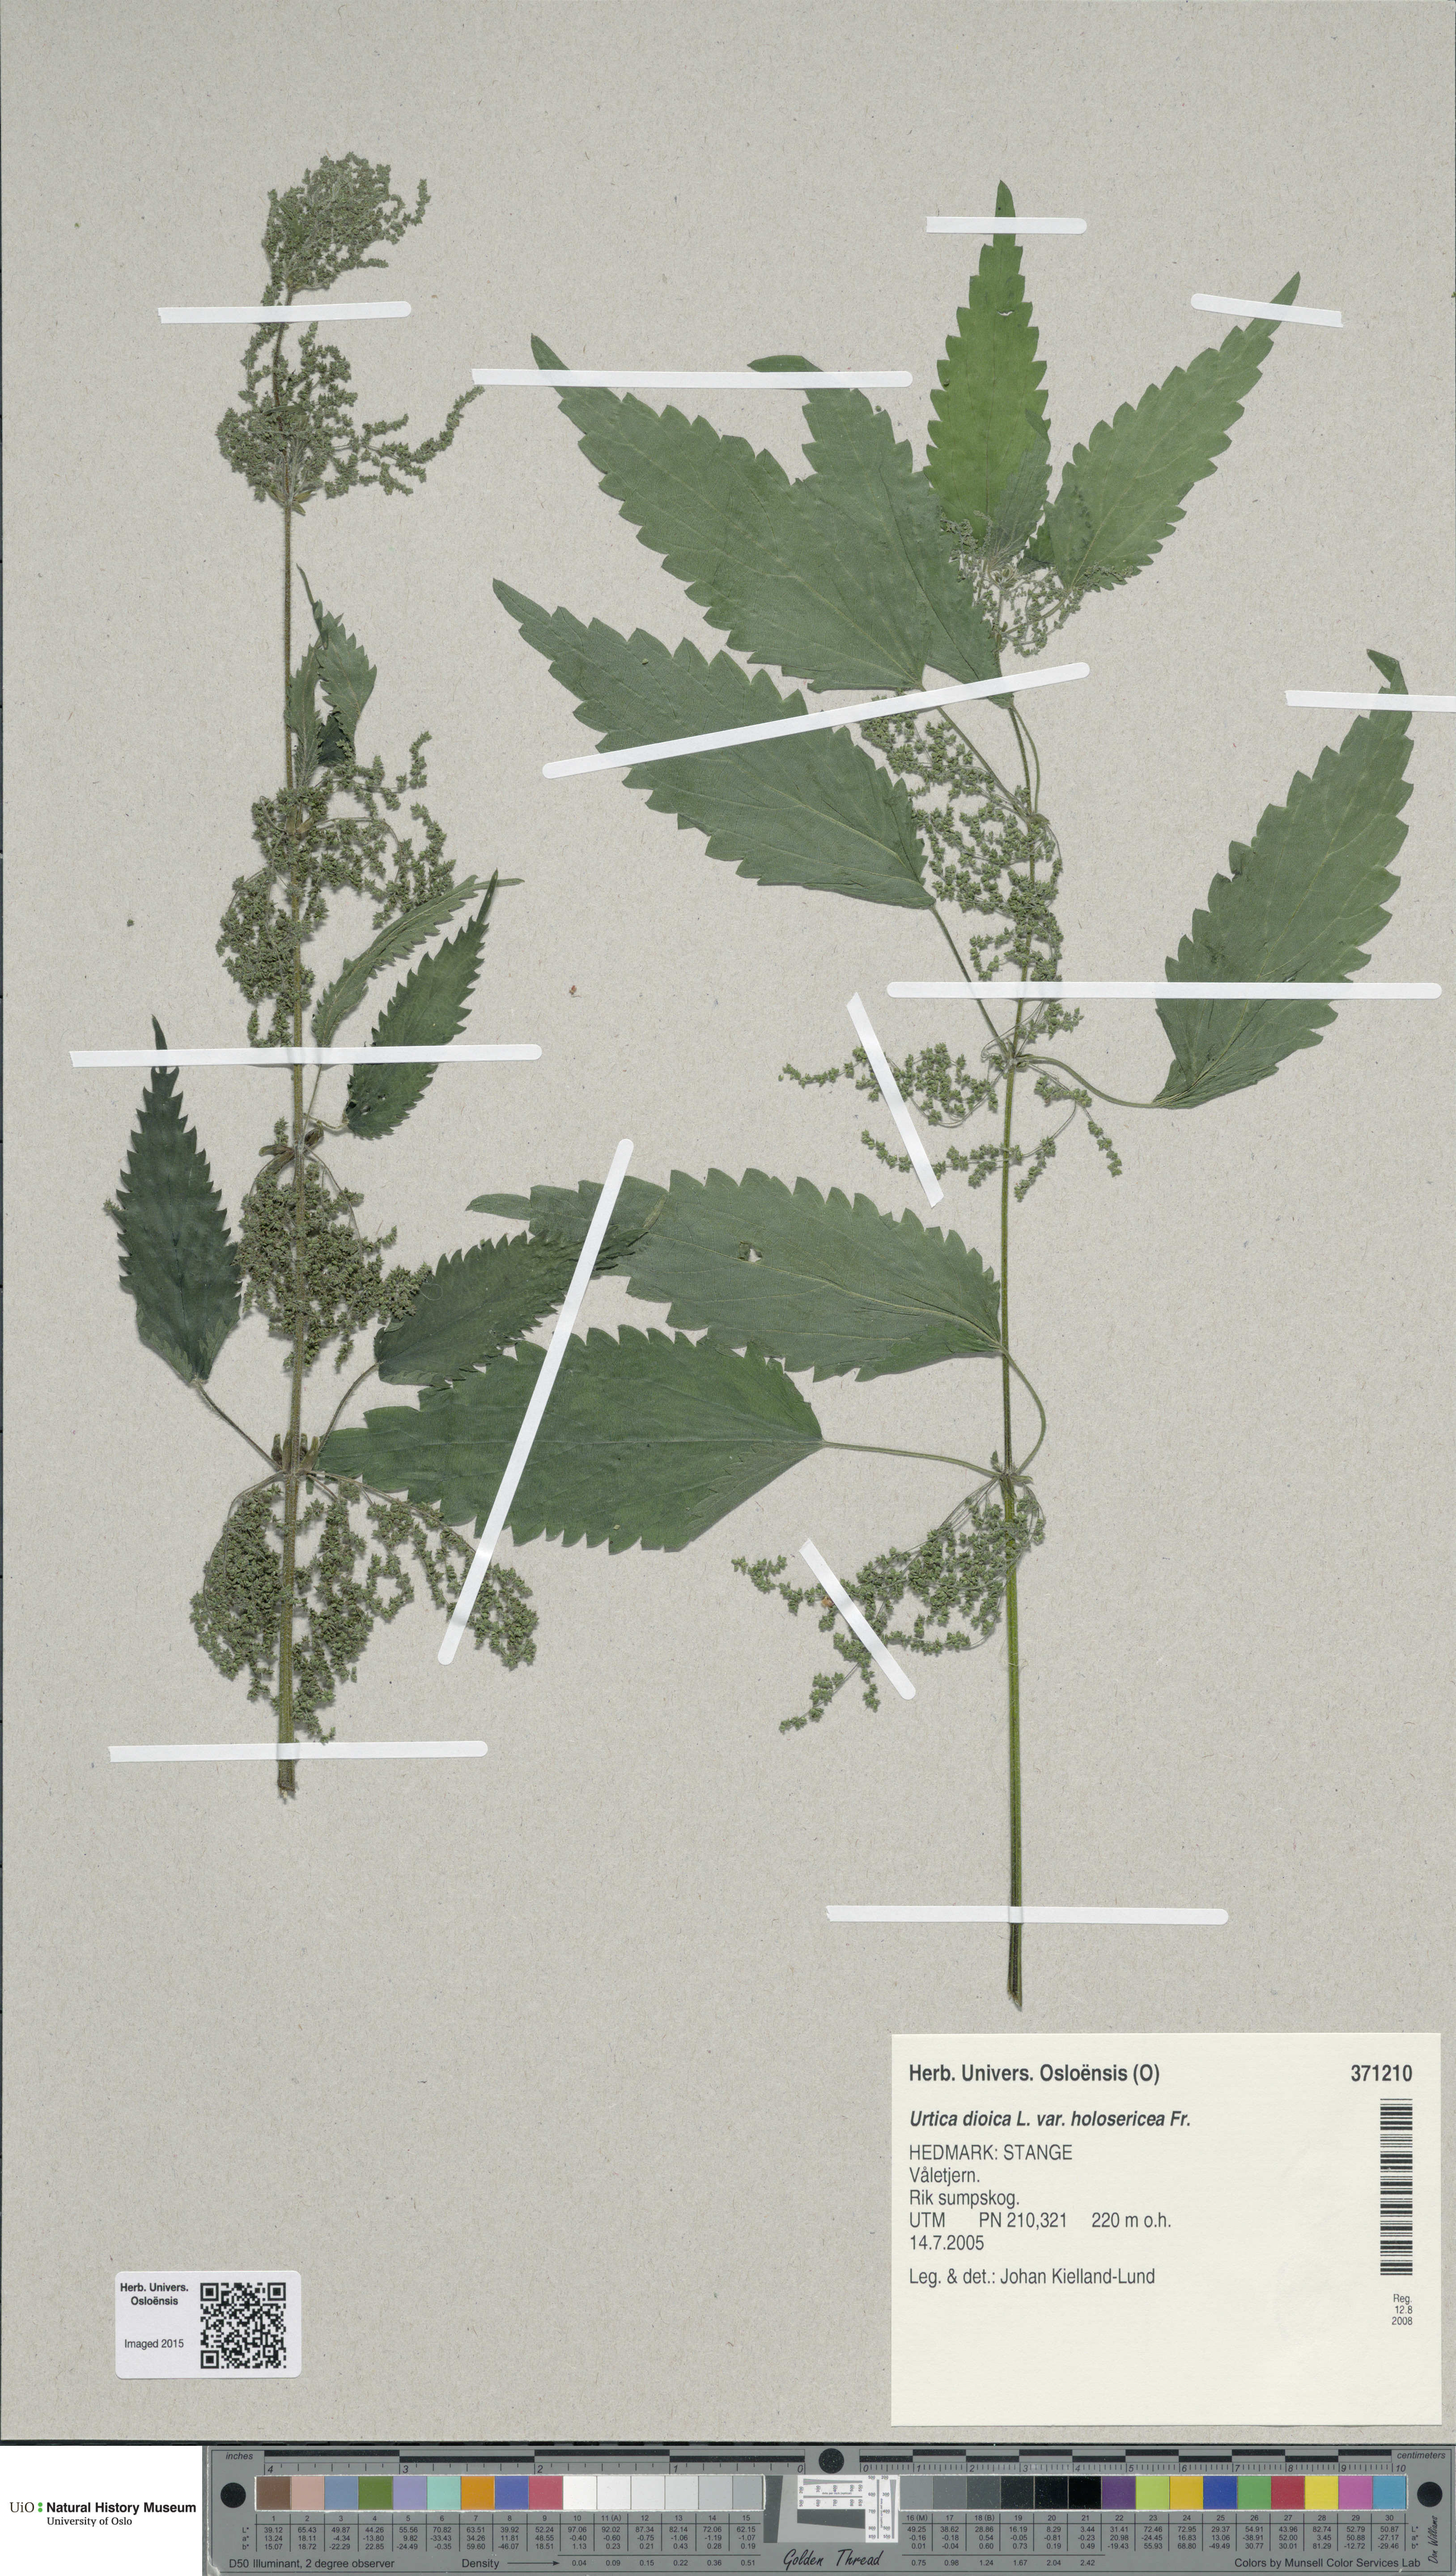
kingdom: Plantae
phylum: Tracheophyta
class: Magnoliopsida
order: Rosales
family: Urticaceae
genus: Urtica
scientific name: Urtica dioica
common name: Common nettle
